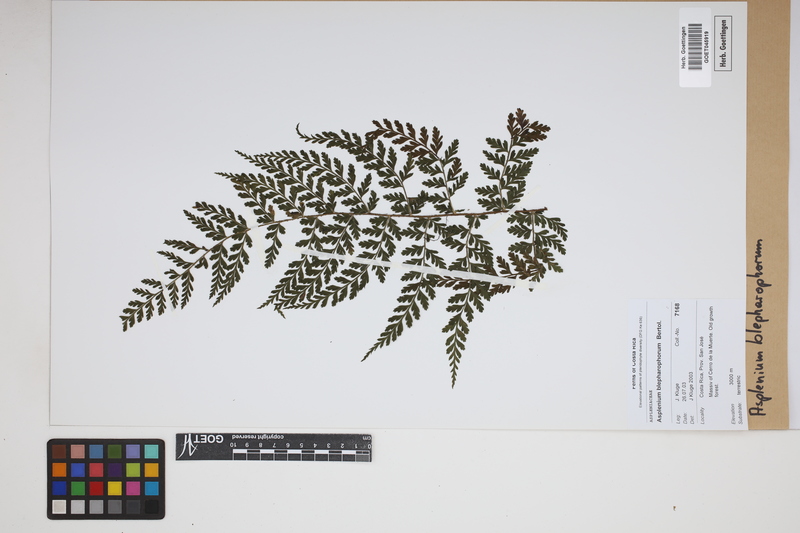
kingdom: Plantae
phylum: Tracheophyta
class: Polypodiopsida
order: Polypodiales
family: Aspleniaceae
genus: Asplenium
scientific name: Asplenium blepharophorum
